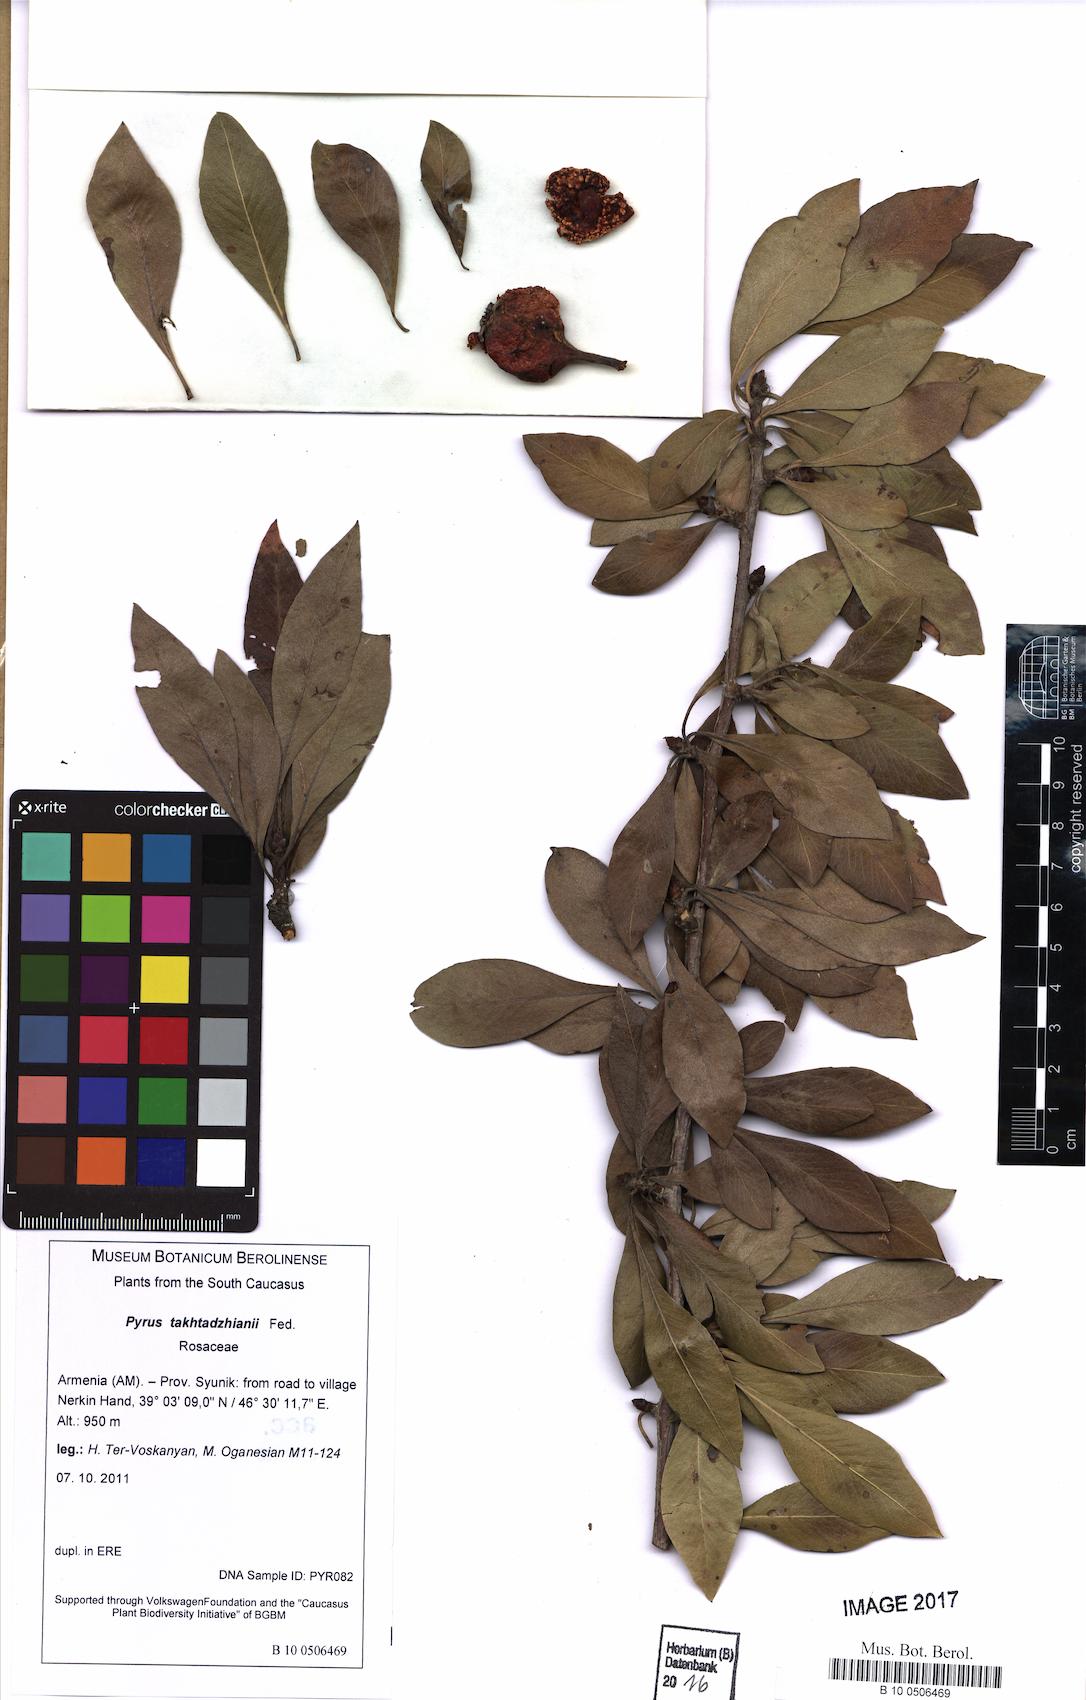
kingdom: Plantae
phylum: Tracheophyta
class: Magnoliopsida
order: Rosales
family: Rosaceae
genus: Pyrus
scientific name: Pyrus takhtadzhianii
